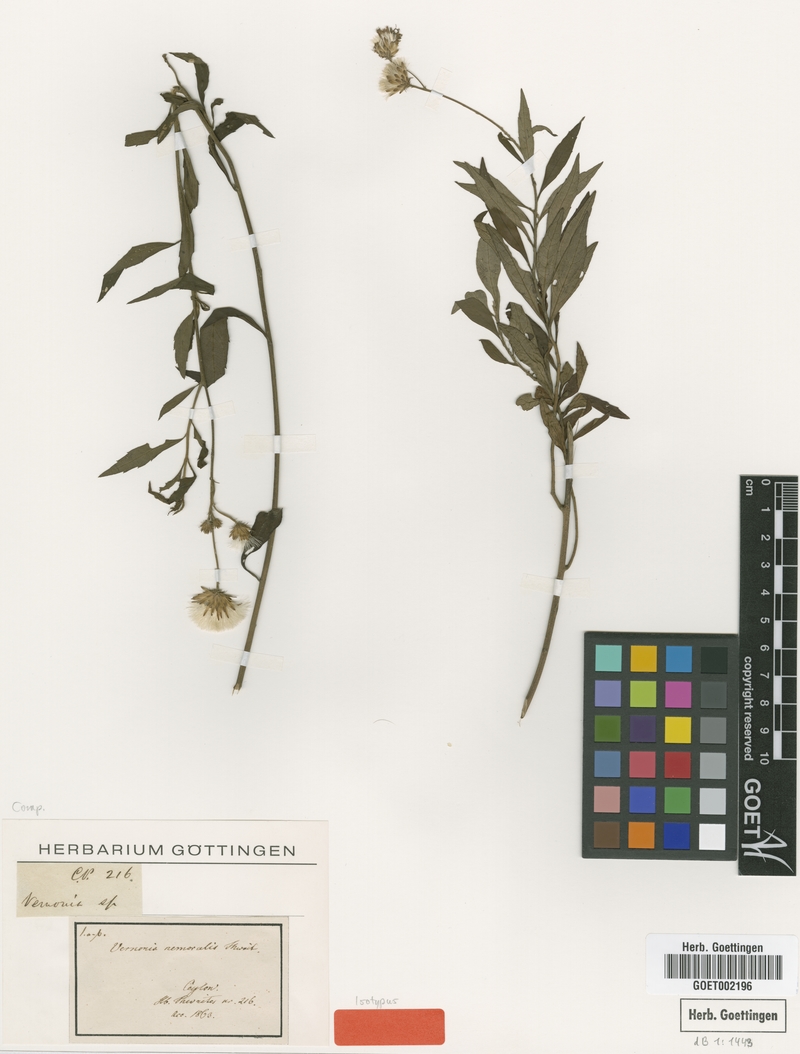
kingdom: Plantae
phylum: Tracheophyta
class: Magnoliopsida
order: Asterales
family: Asteraceae
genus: Acilepis
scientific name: Acilepis nemoralis
